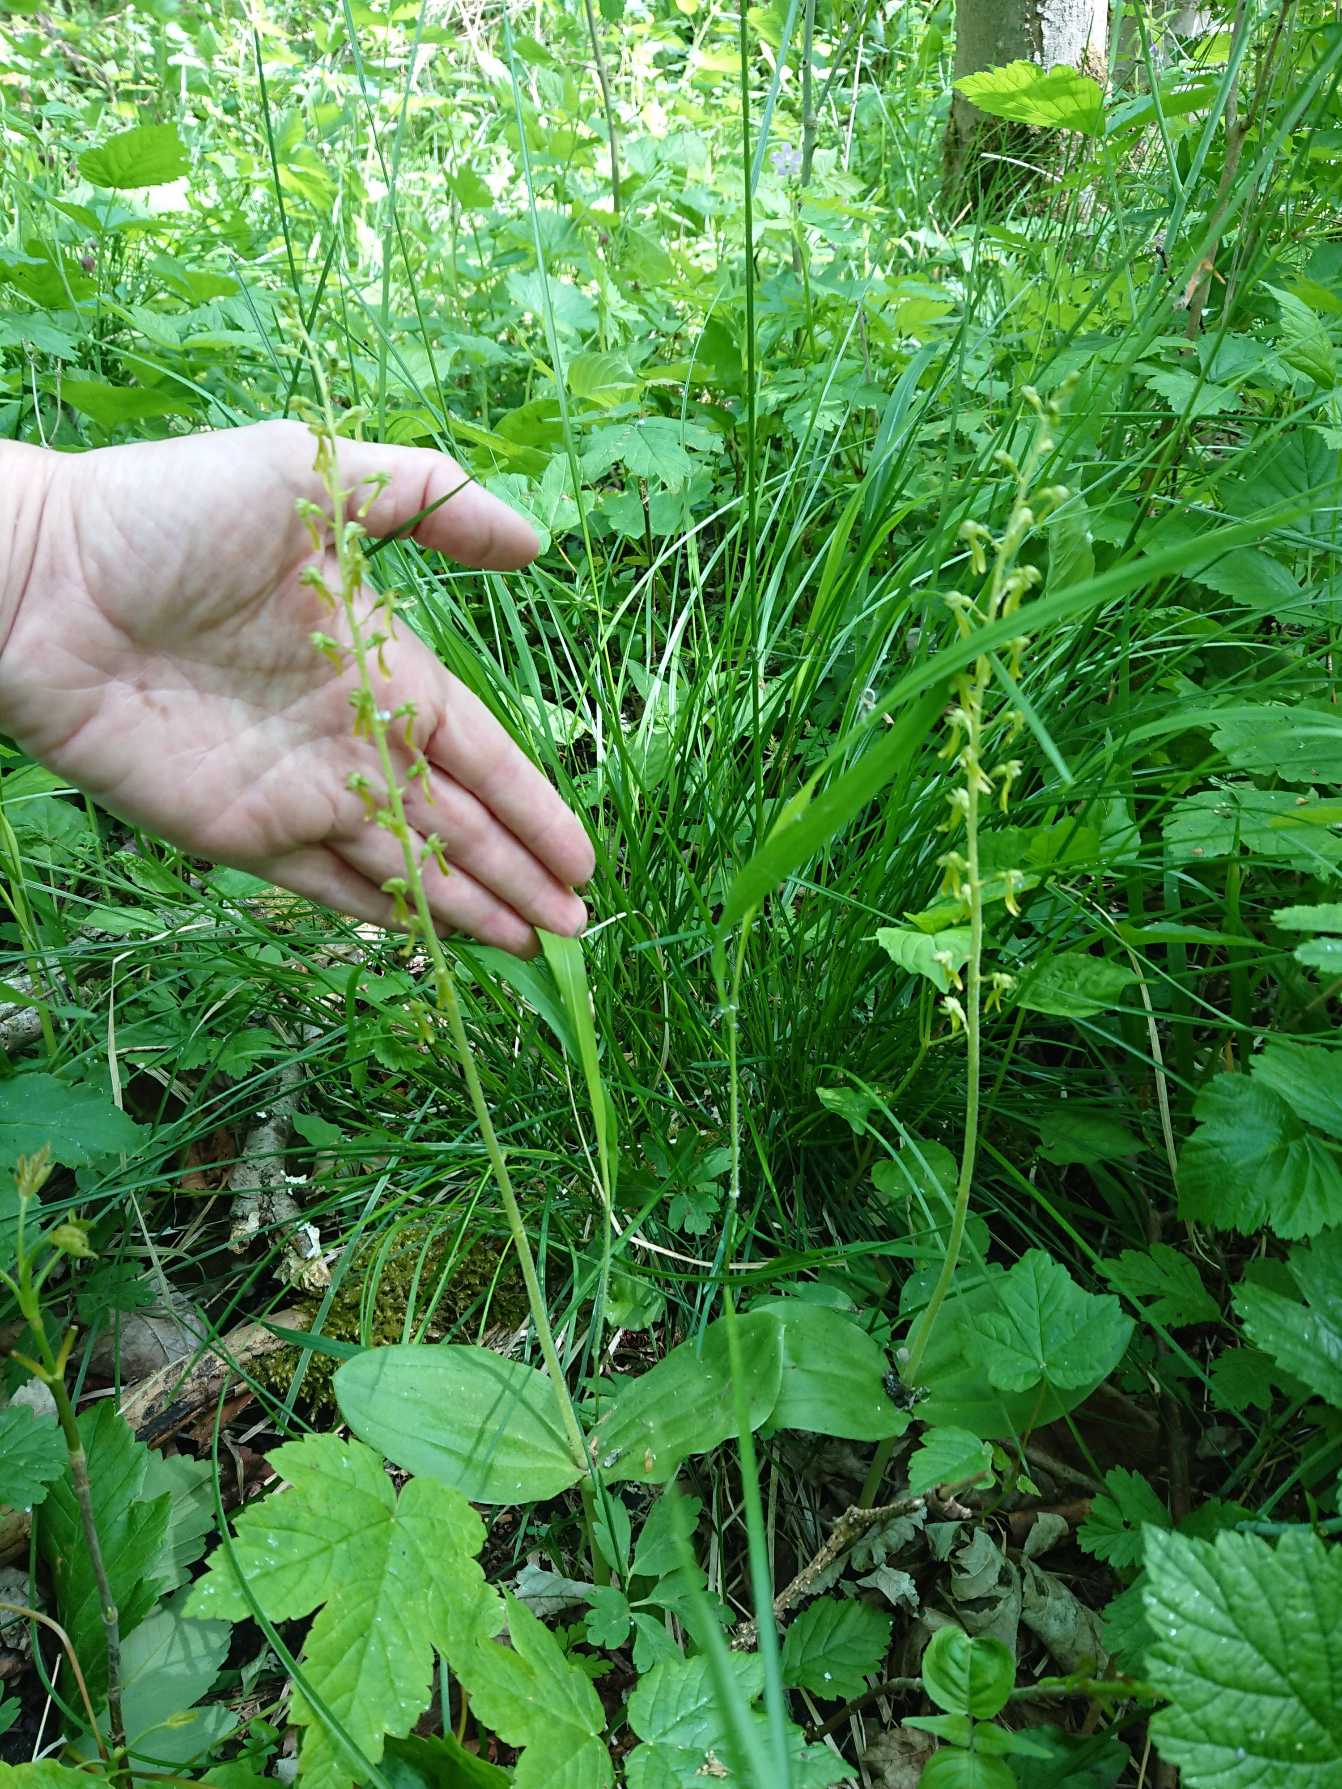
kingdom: Plantae
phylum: Tracheophyta
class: Liliopsida
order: Asparagales
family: Orchidaceae
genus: Neottia
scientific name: Neottia ovata
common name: Ægbladet fliglæbe
